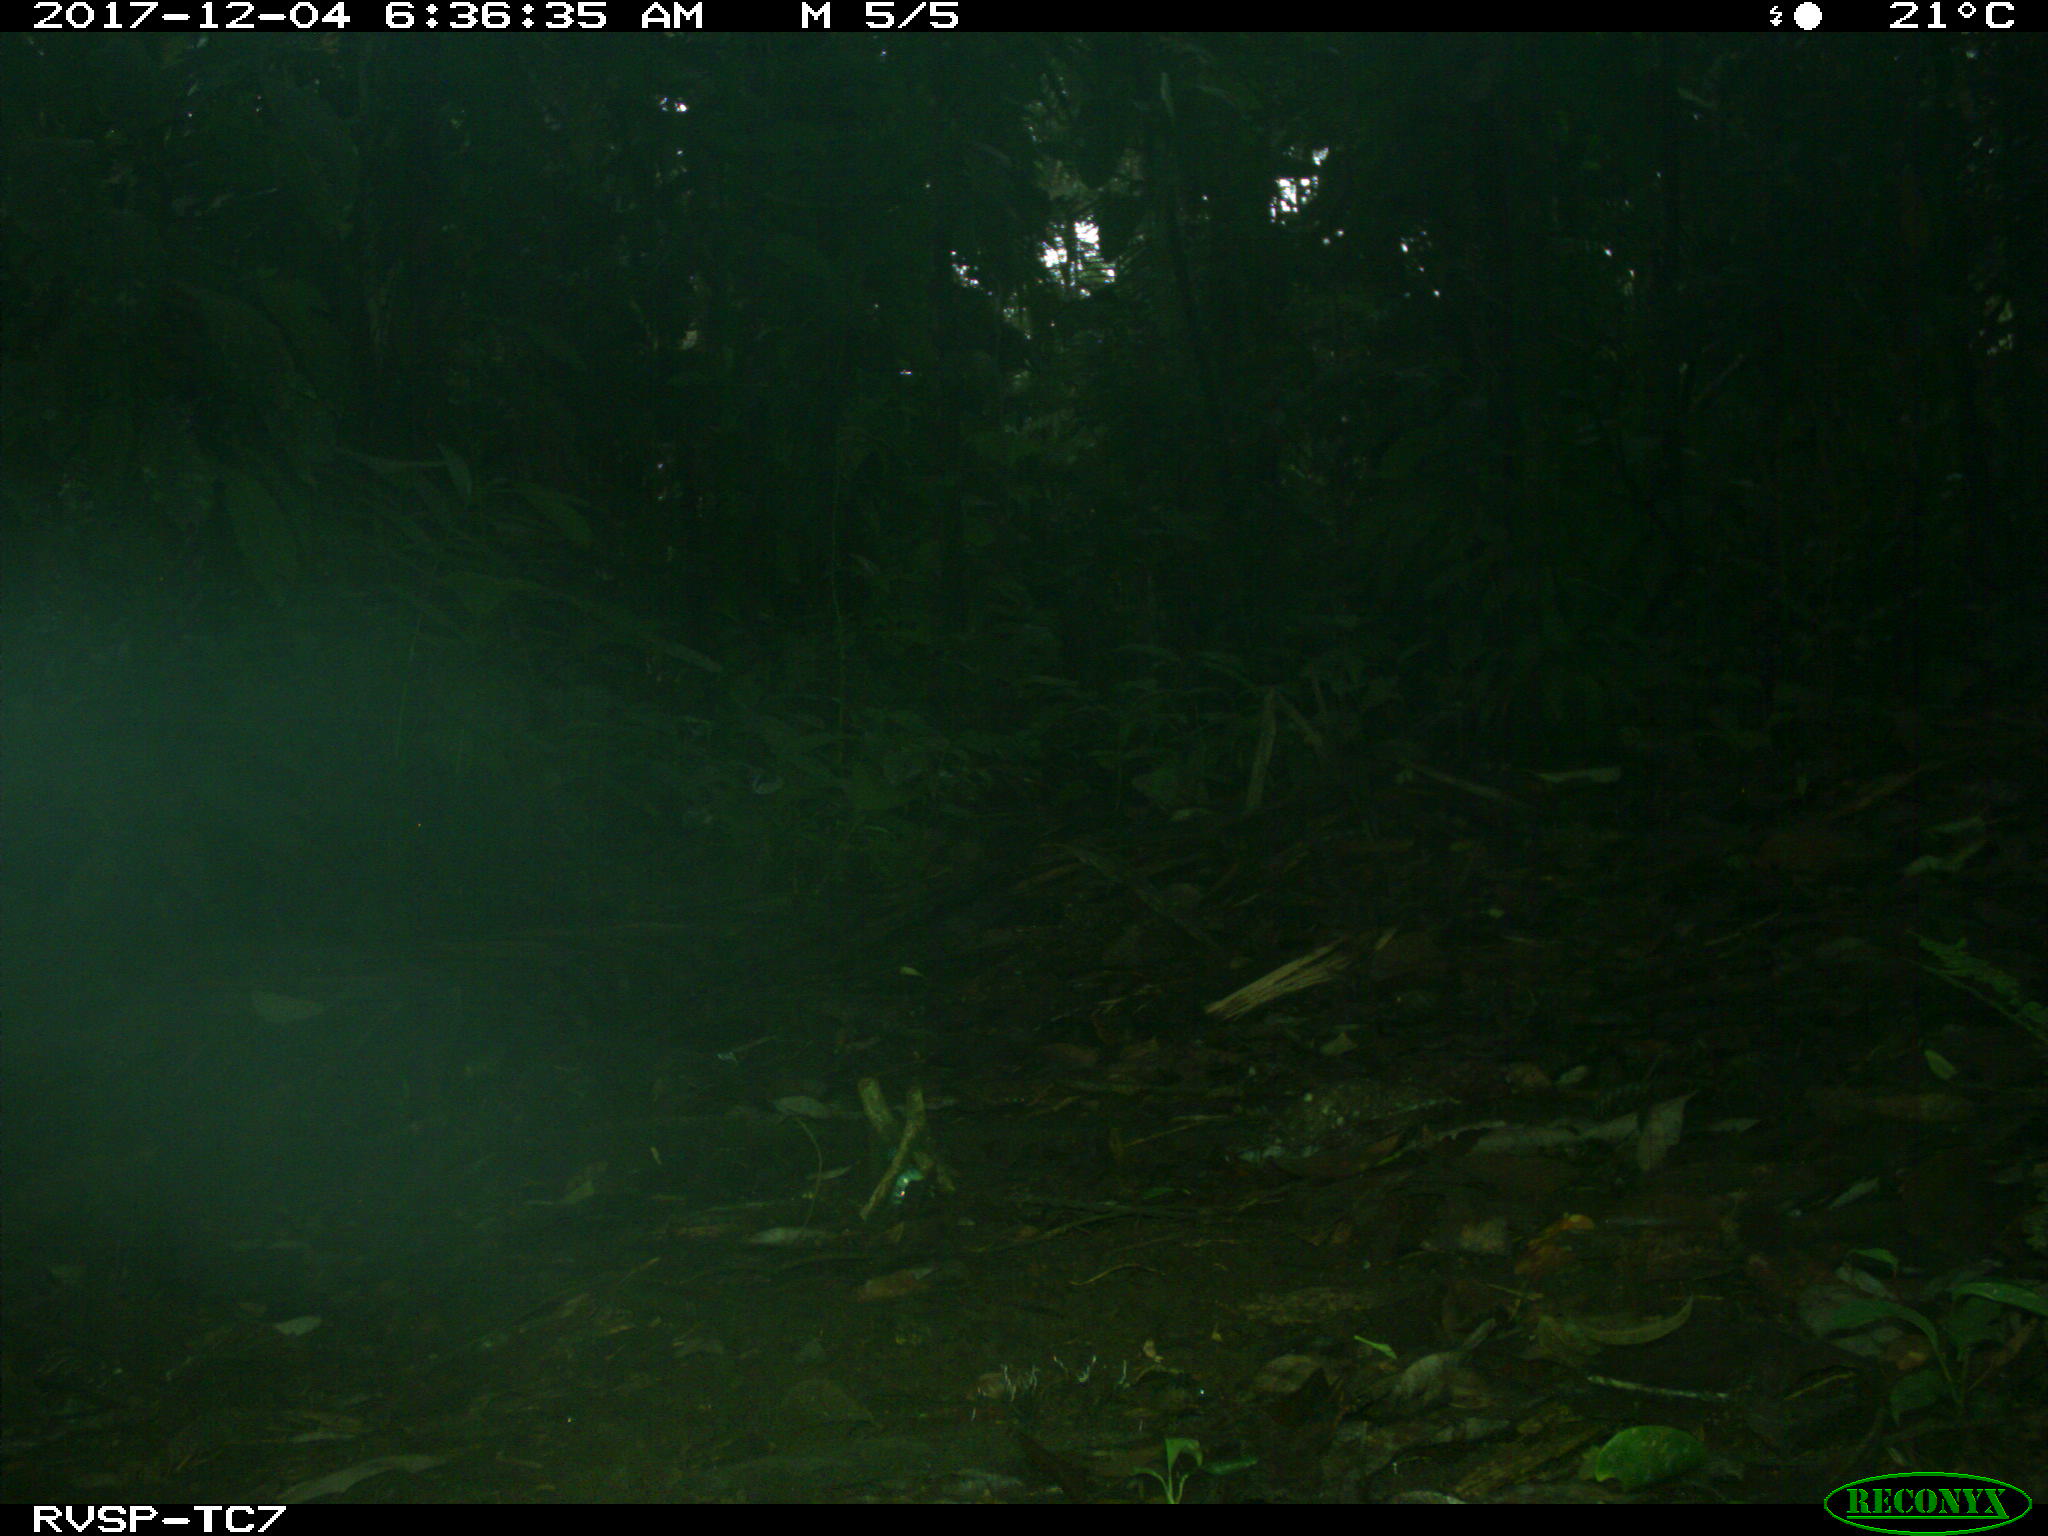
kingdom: Animalia
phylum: Chordata
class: Mammalia
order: Rodentia
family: Dasyproctidae
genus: Dasyprocta
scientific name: Dasyprocta punctata
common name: Central american agouti
